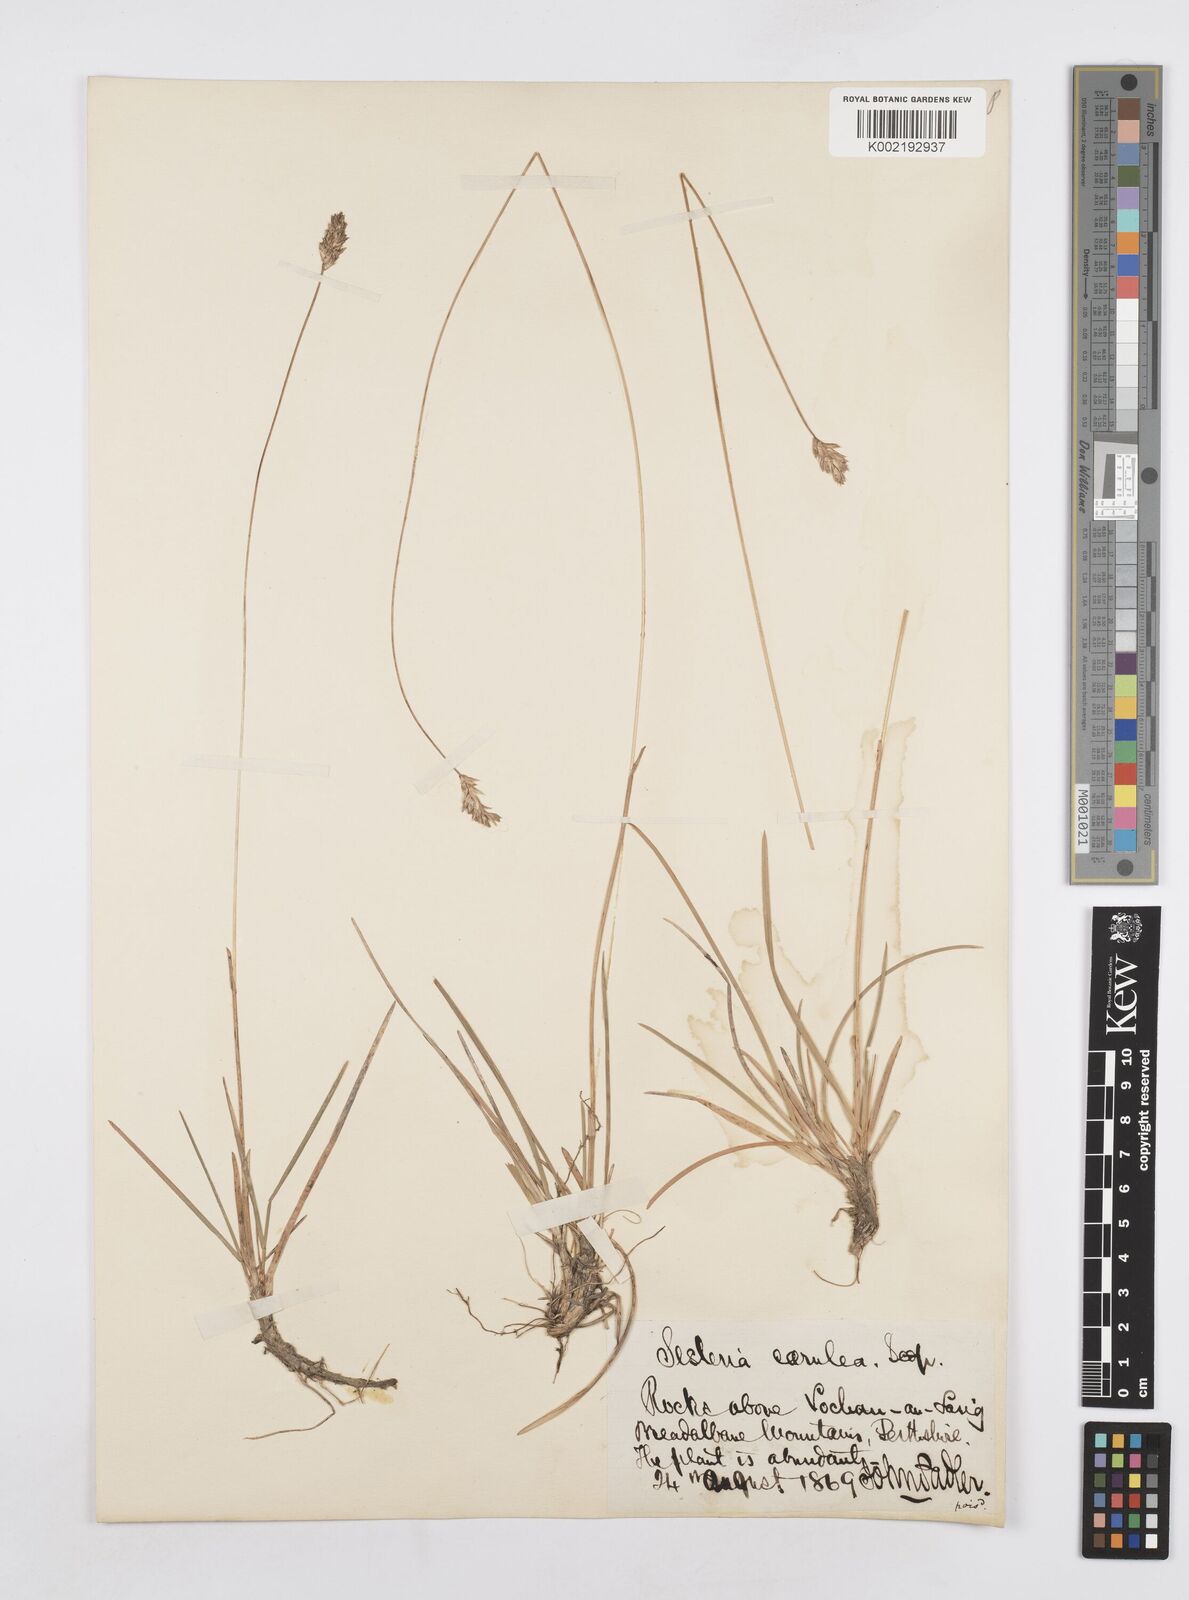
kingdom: Plantae
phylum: Tracheophyta
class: Liliopsida
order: Poales
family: Poaceae
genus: Sesleria
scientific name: Sesleria caerulea
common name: Blue moor-grass
